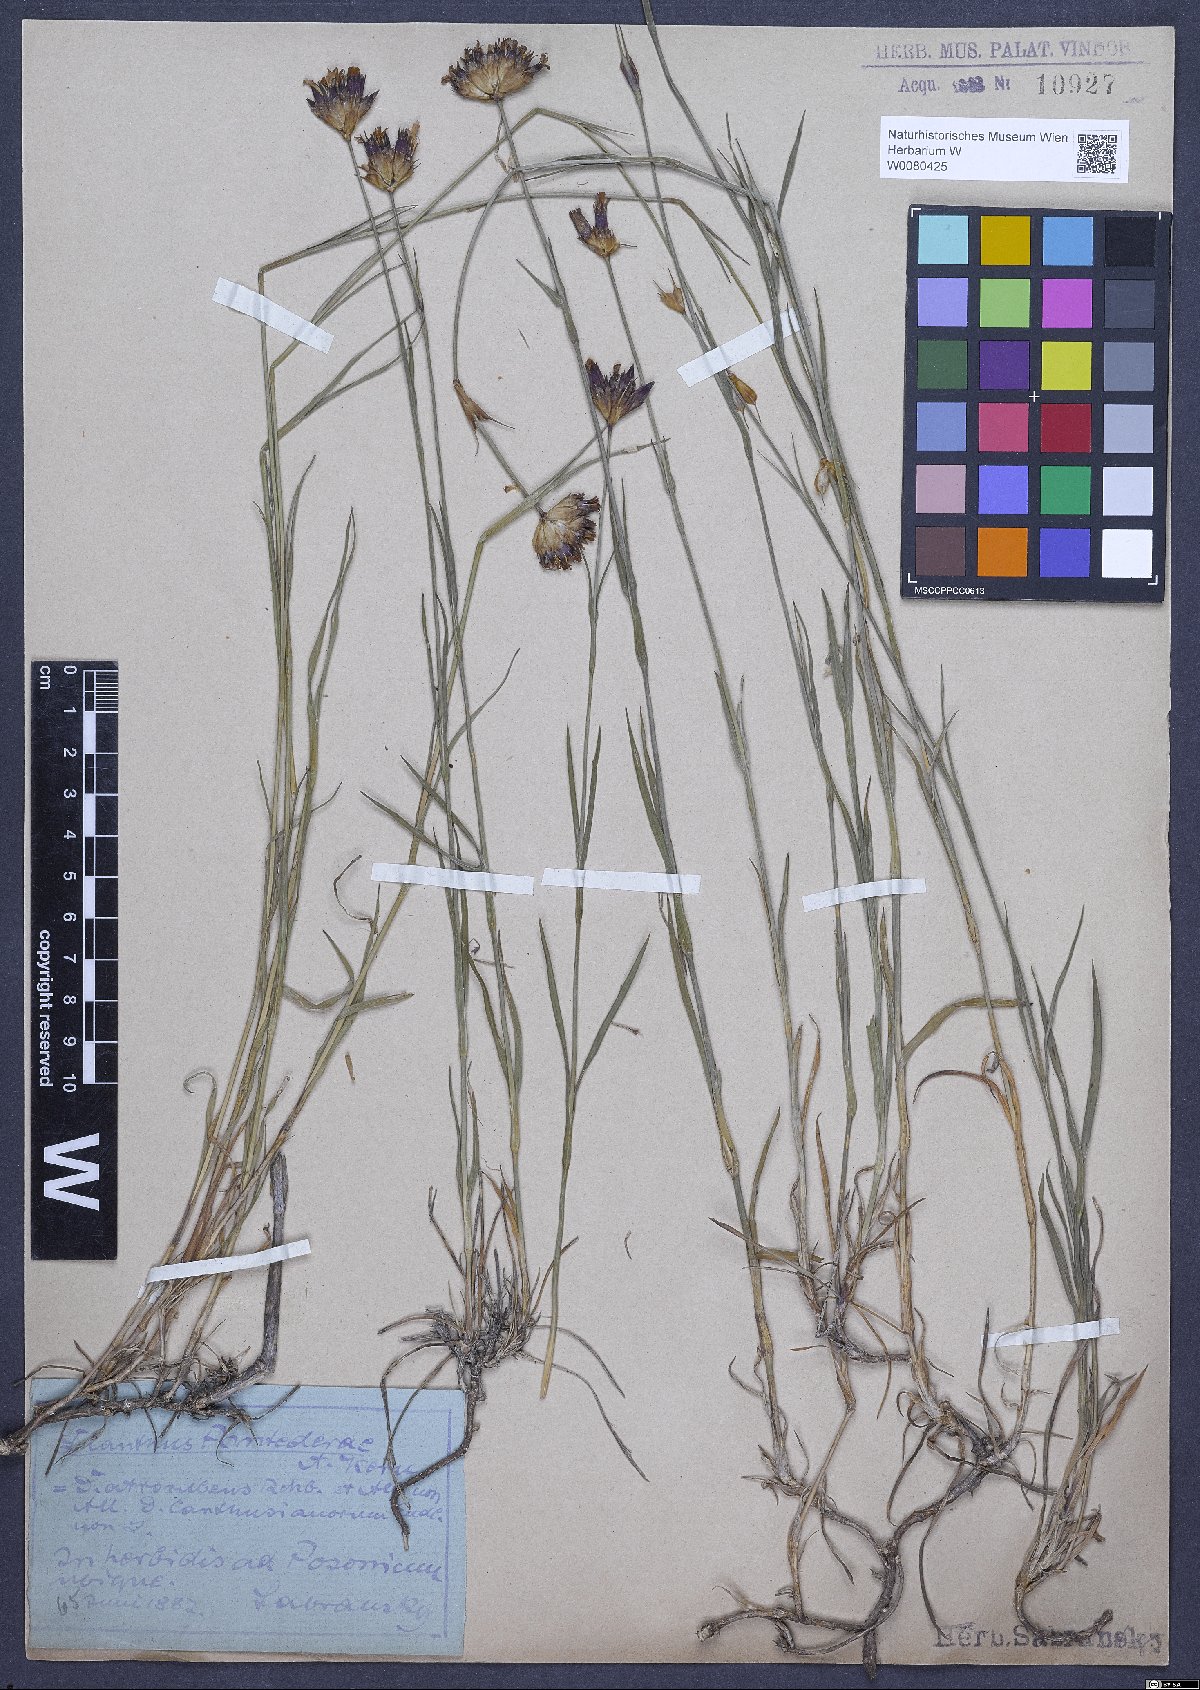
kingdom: Plantae
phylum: Tracheophyta
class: Magnoliopsida
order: Caryophyllales
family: Caryophyllaceae
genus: Dianthus
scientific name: Dianthus carthusianorum
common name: Carthusian pink
